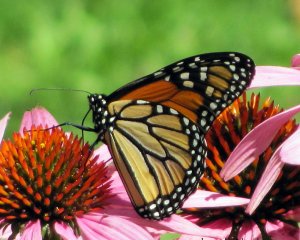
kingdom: Animalia
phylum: Arthropoda
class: Insecta
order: Lepidoptera
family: Nymphalidae
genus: Danaus
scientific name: Danaus plexippus
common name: Monarch
